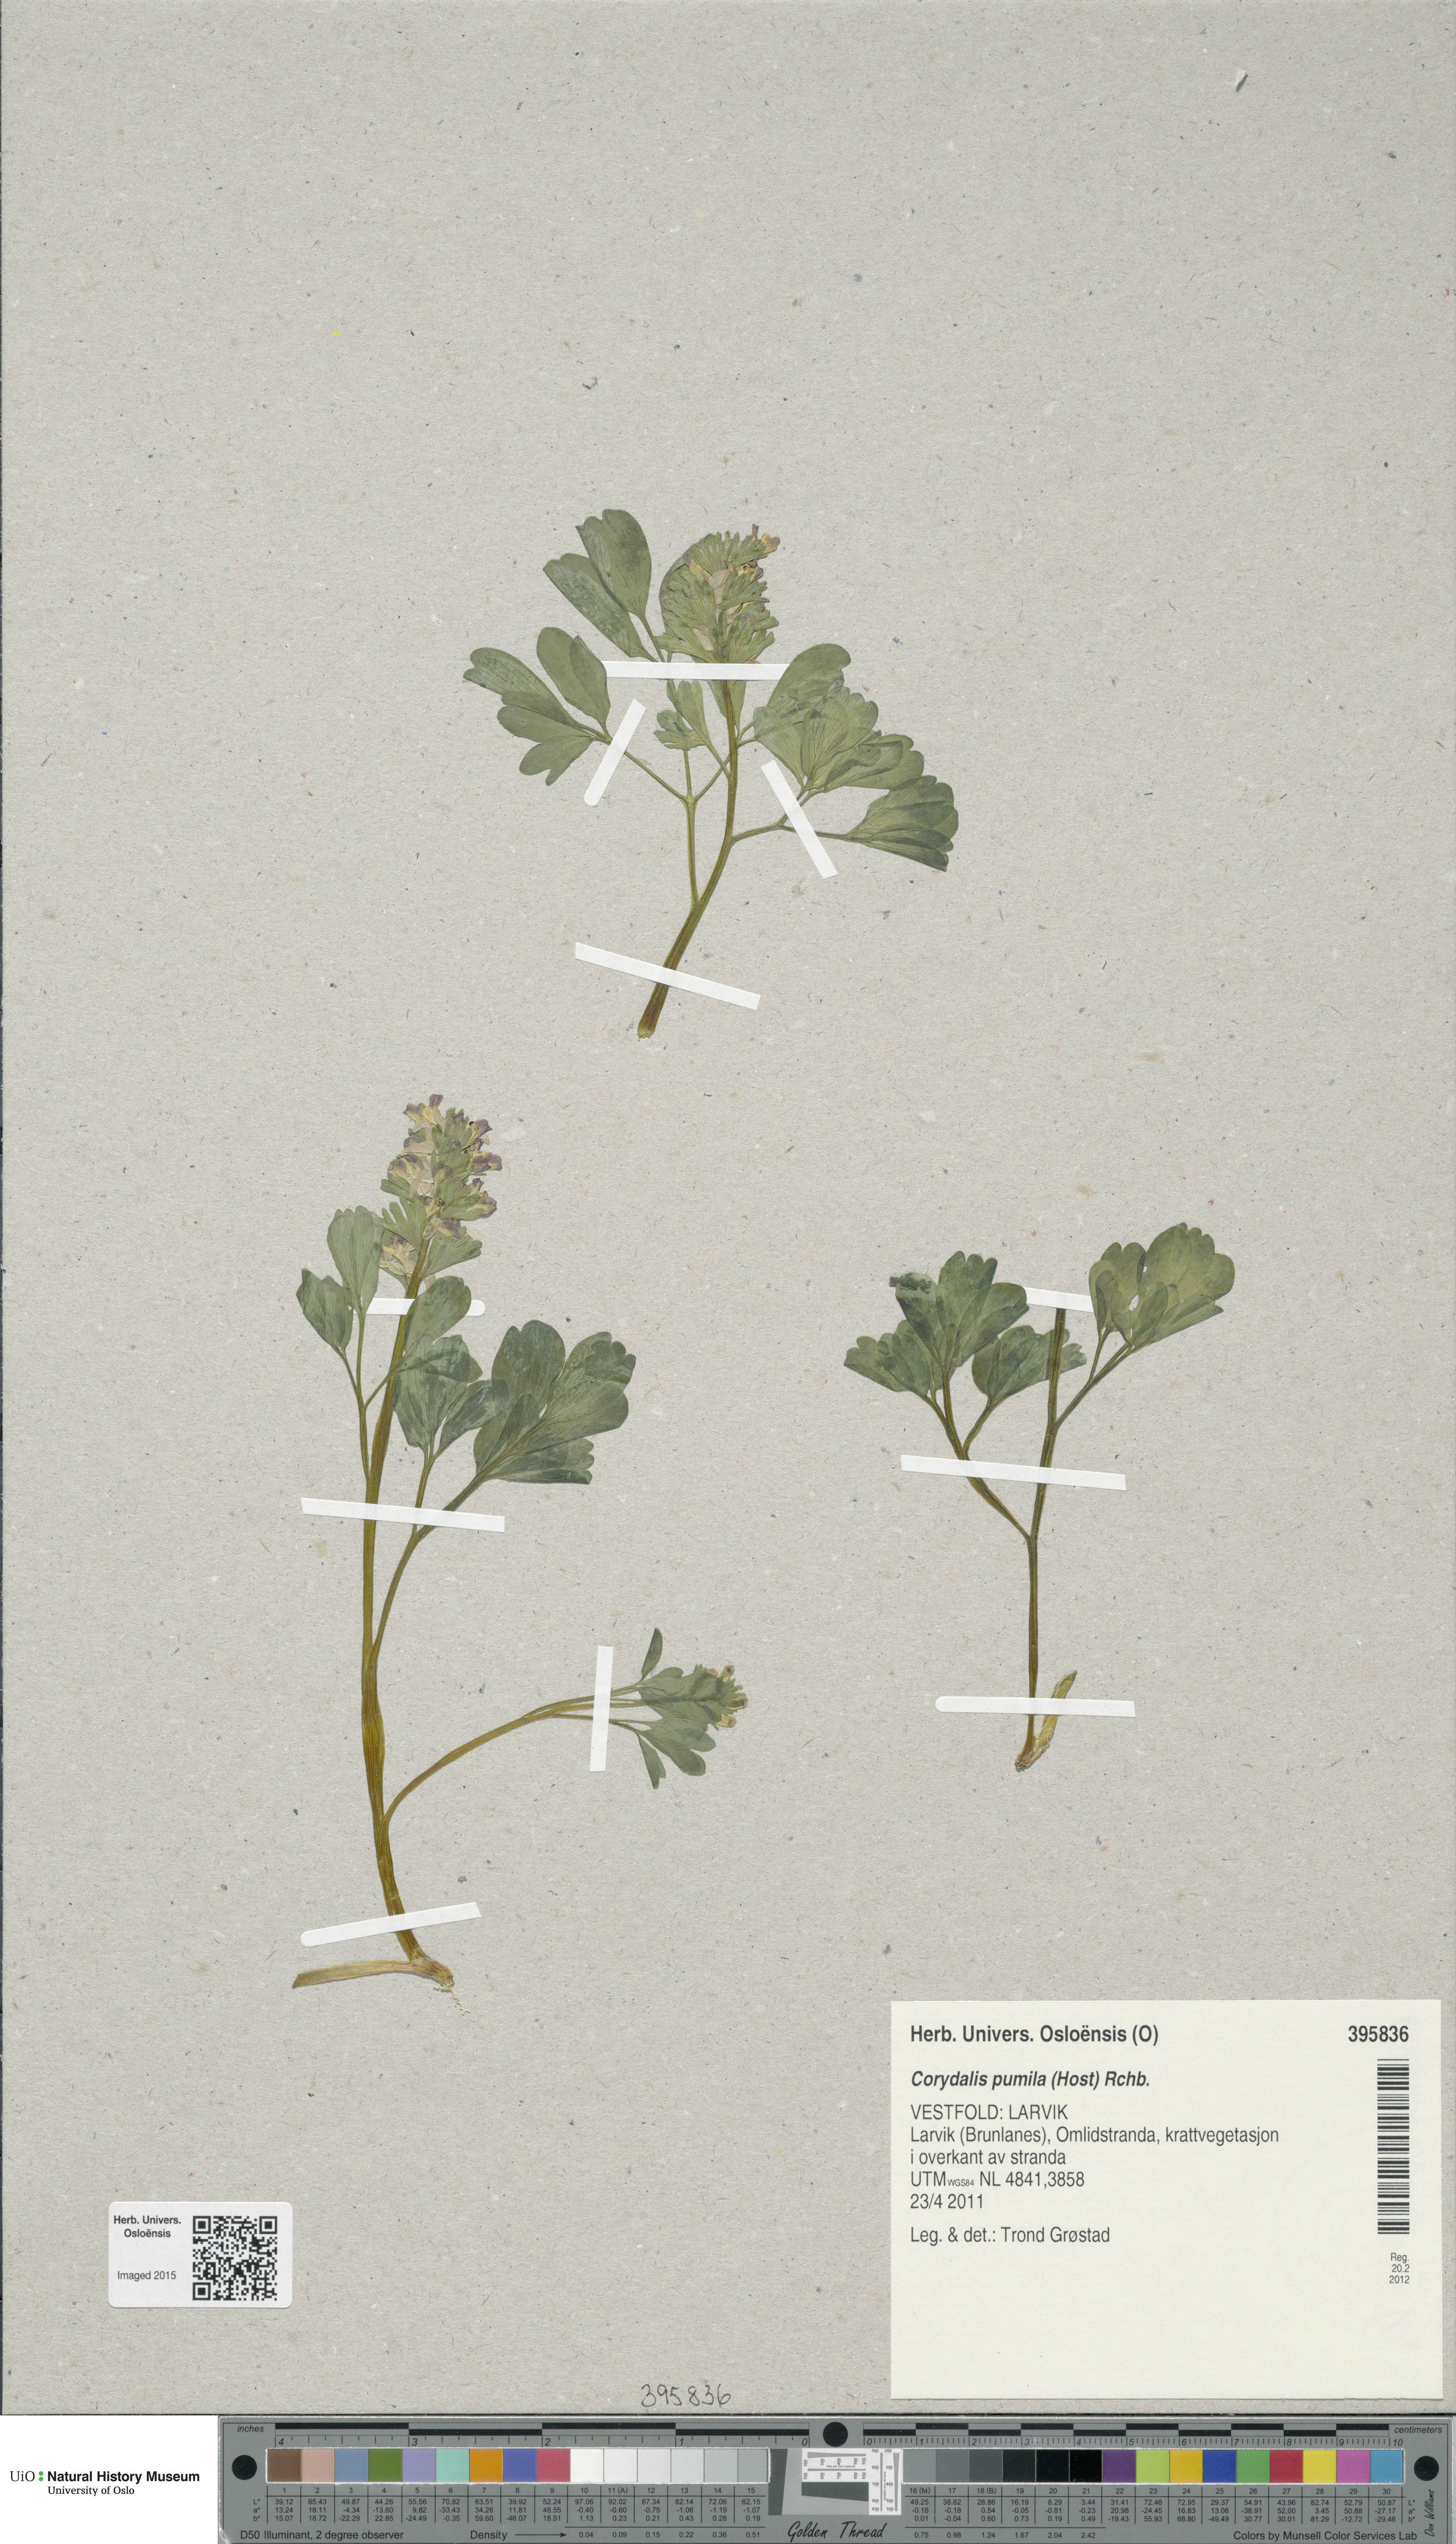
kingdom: Plantae
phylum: Tracheophyta
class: Magnoliopsida
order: Ranunculales
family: Papaveraceae
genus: Corydalis
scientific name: Corydalis pumila
